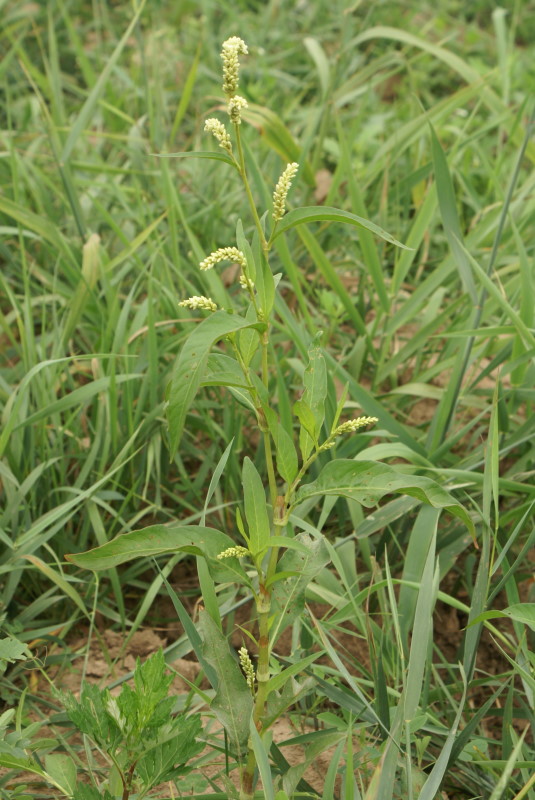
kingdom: Plantae
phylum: Tracheophyta
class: Magnoliopsida
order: Caryophyllales
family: Polygonaceae
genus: Persicaria
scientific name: Persicaria lapathifolia
